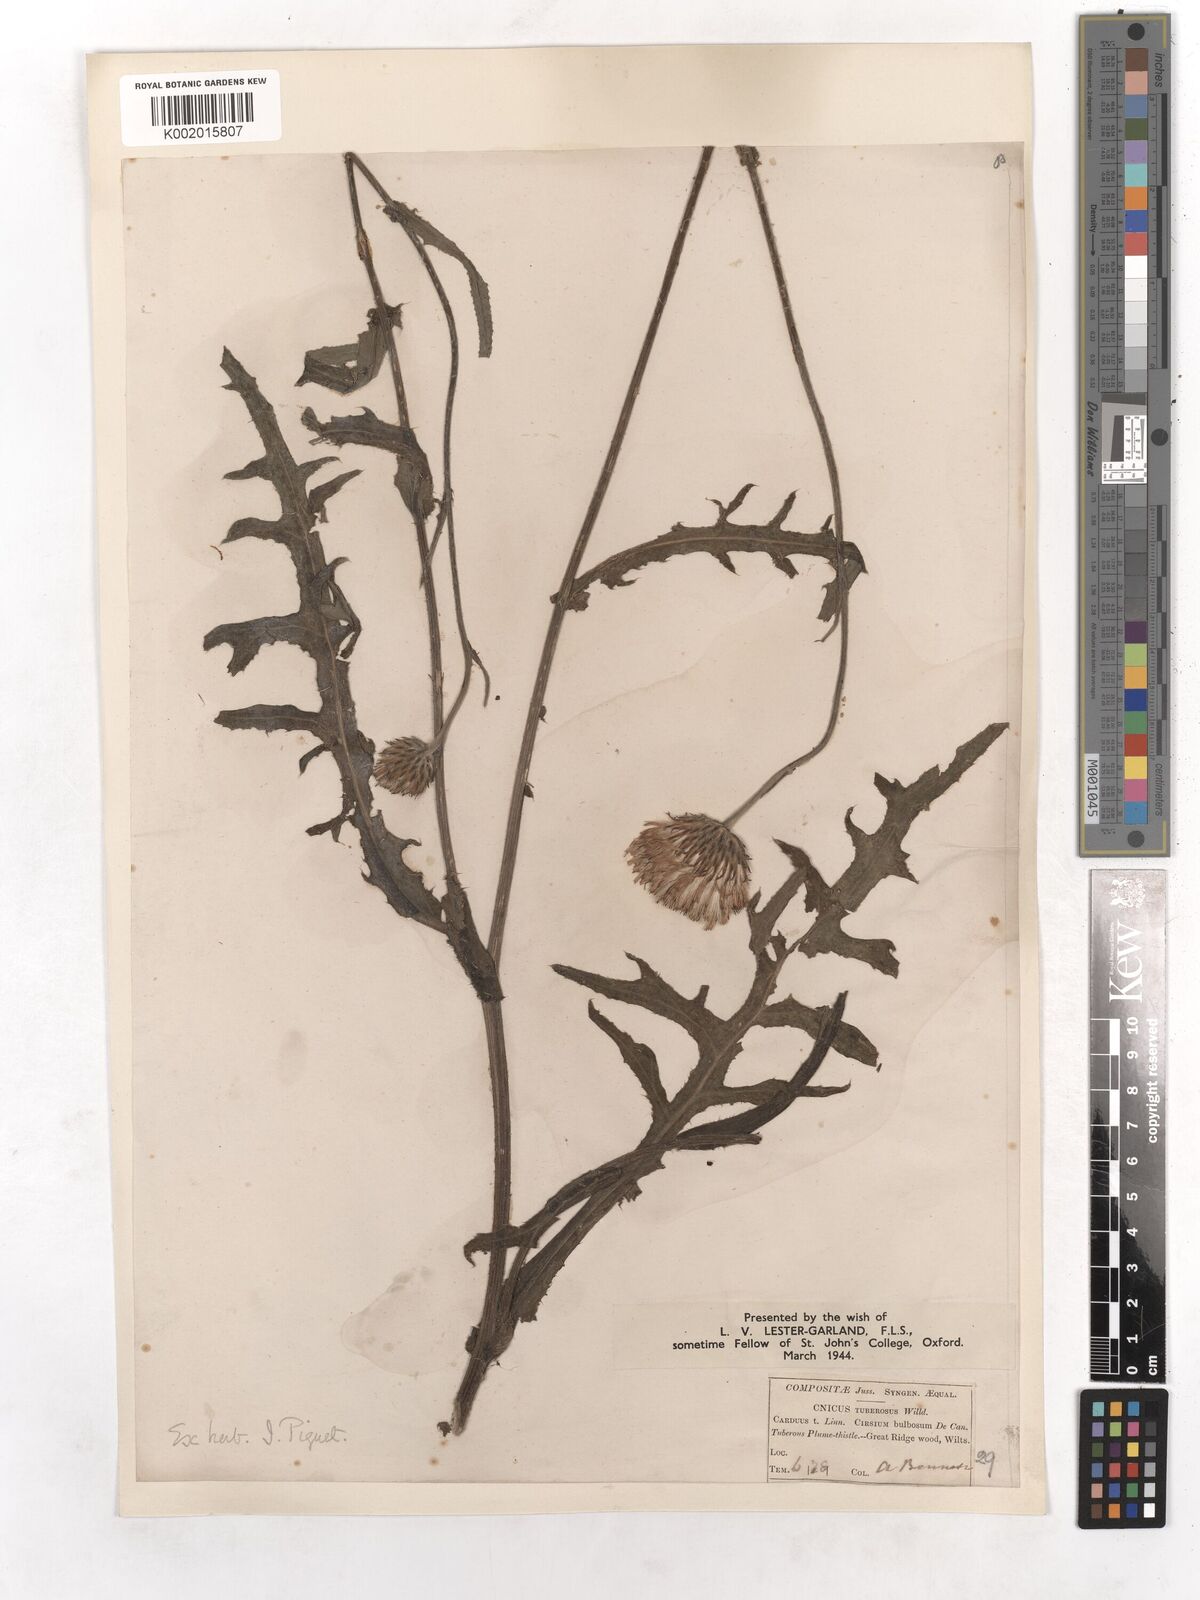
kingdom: Plantae
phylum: Tracheophyta
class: Magnoliopsida
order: Asterales
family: Asteraceae
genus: Cirsium
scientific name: Cirsium tuberosum
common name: Tuberous thistle
